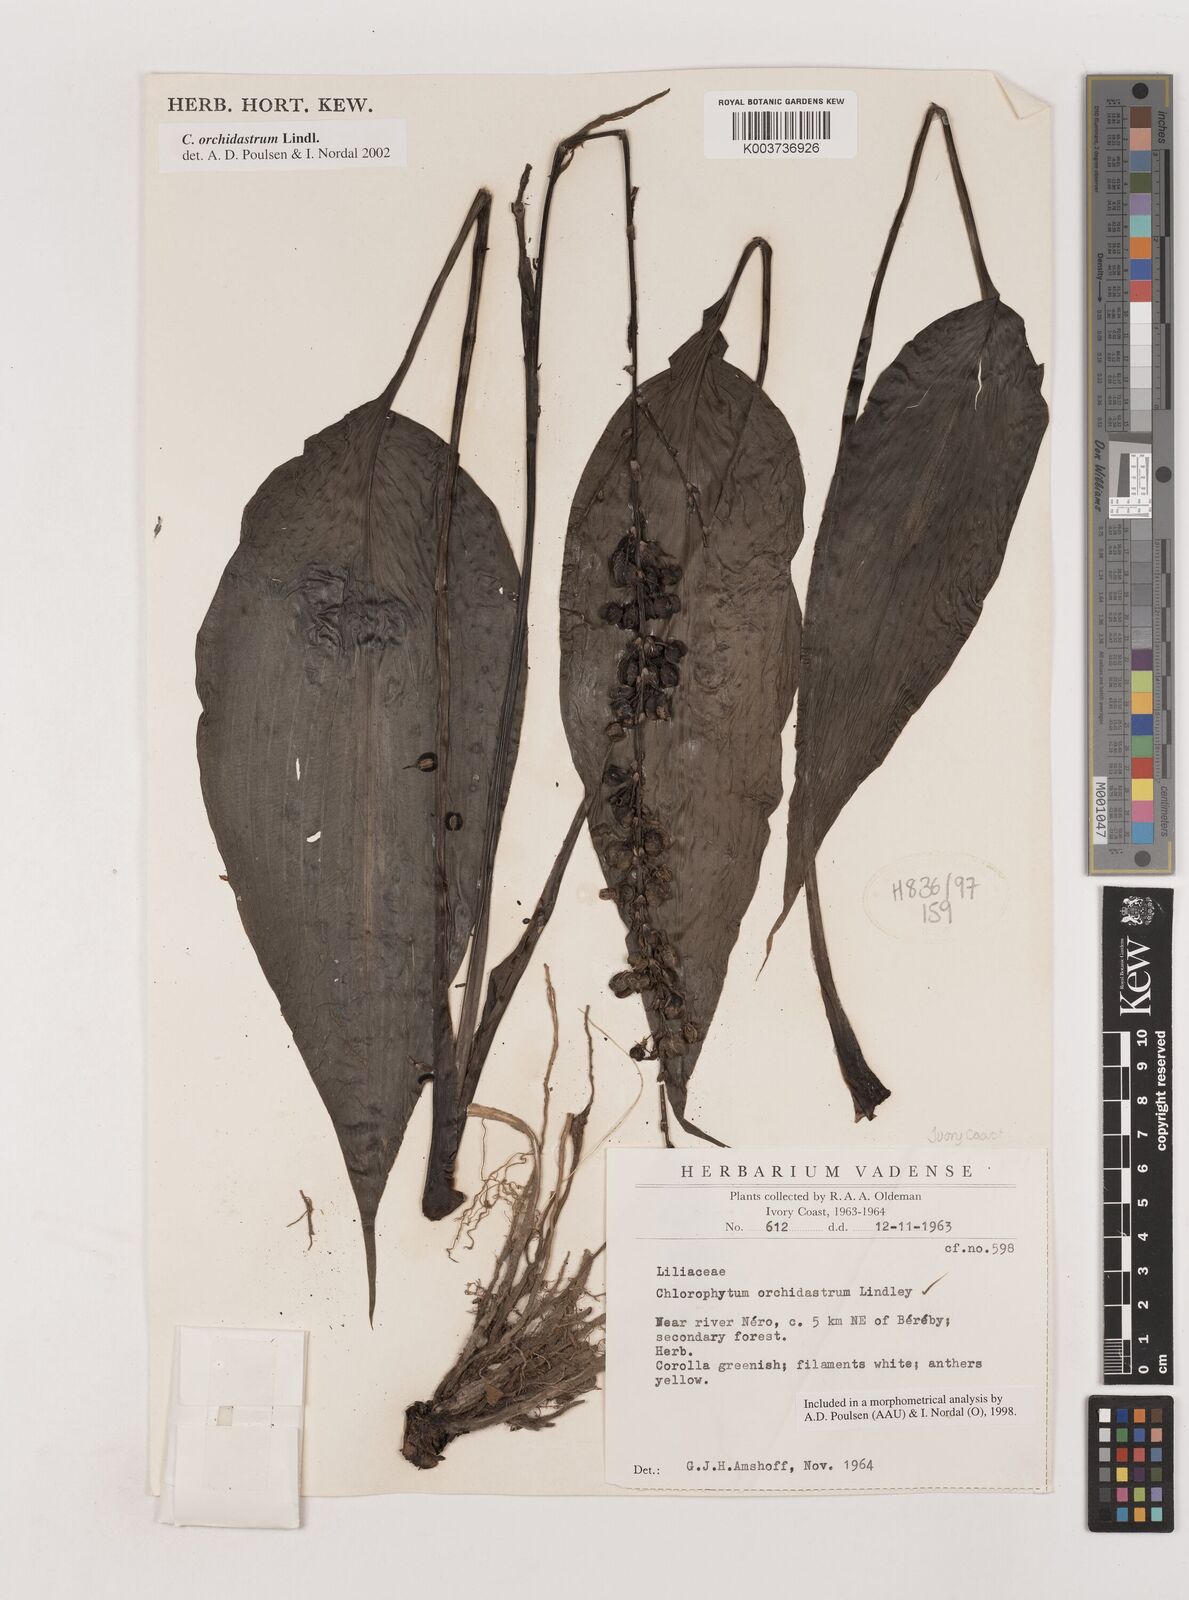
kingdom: Plantae
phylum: Tracheophyta
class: Liliopsida
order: Asparagales
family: Asparagaceae
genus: Chlorophytum
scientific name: Chlorophytum orchidastrum
